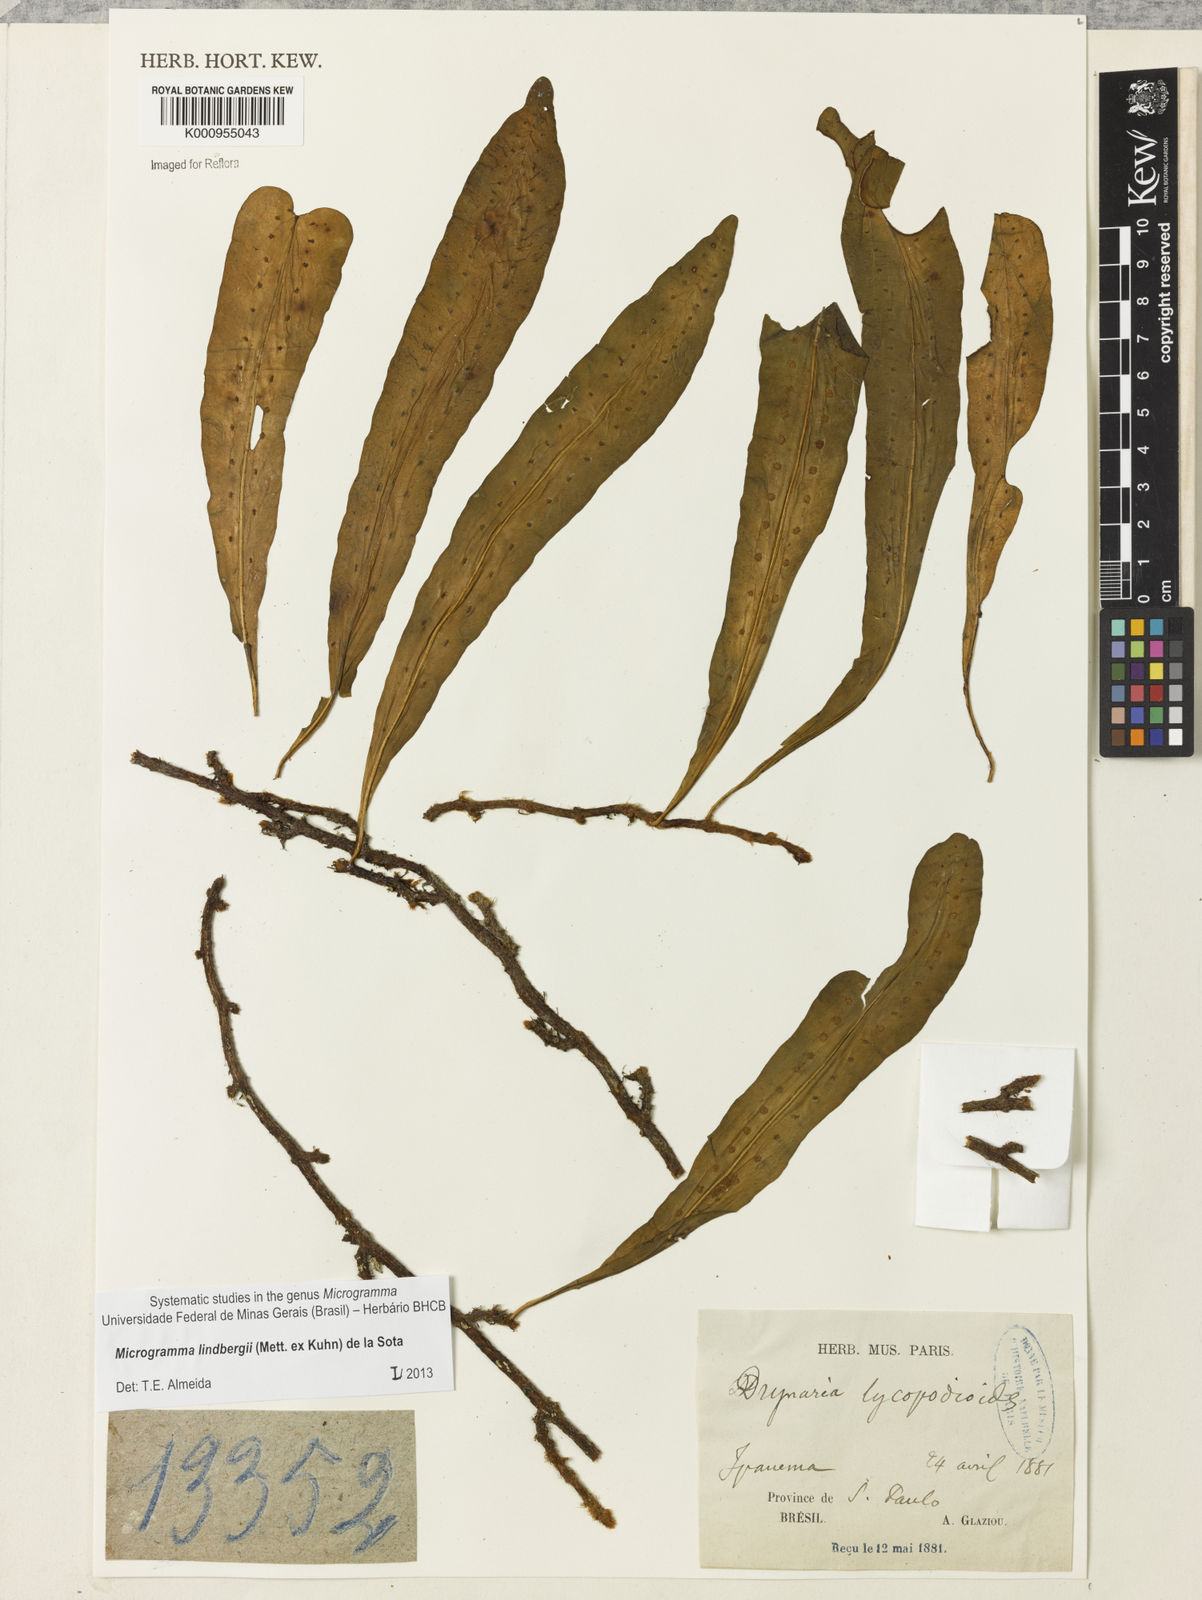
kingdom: Plantae
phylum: Tracheophyta
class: Polypodiopsida
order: Polypodiales
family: Polypodiaceae
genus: Microgramma
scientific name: Microgramma
